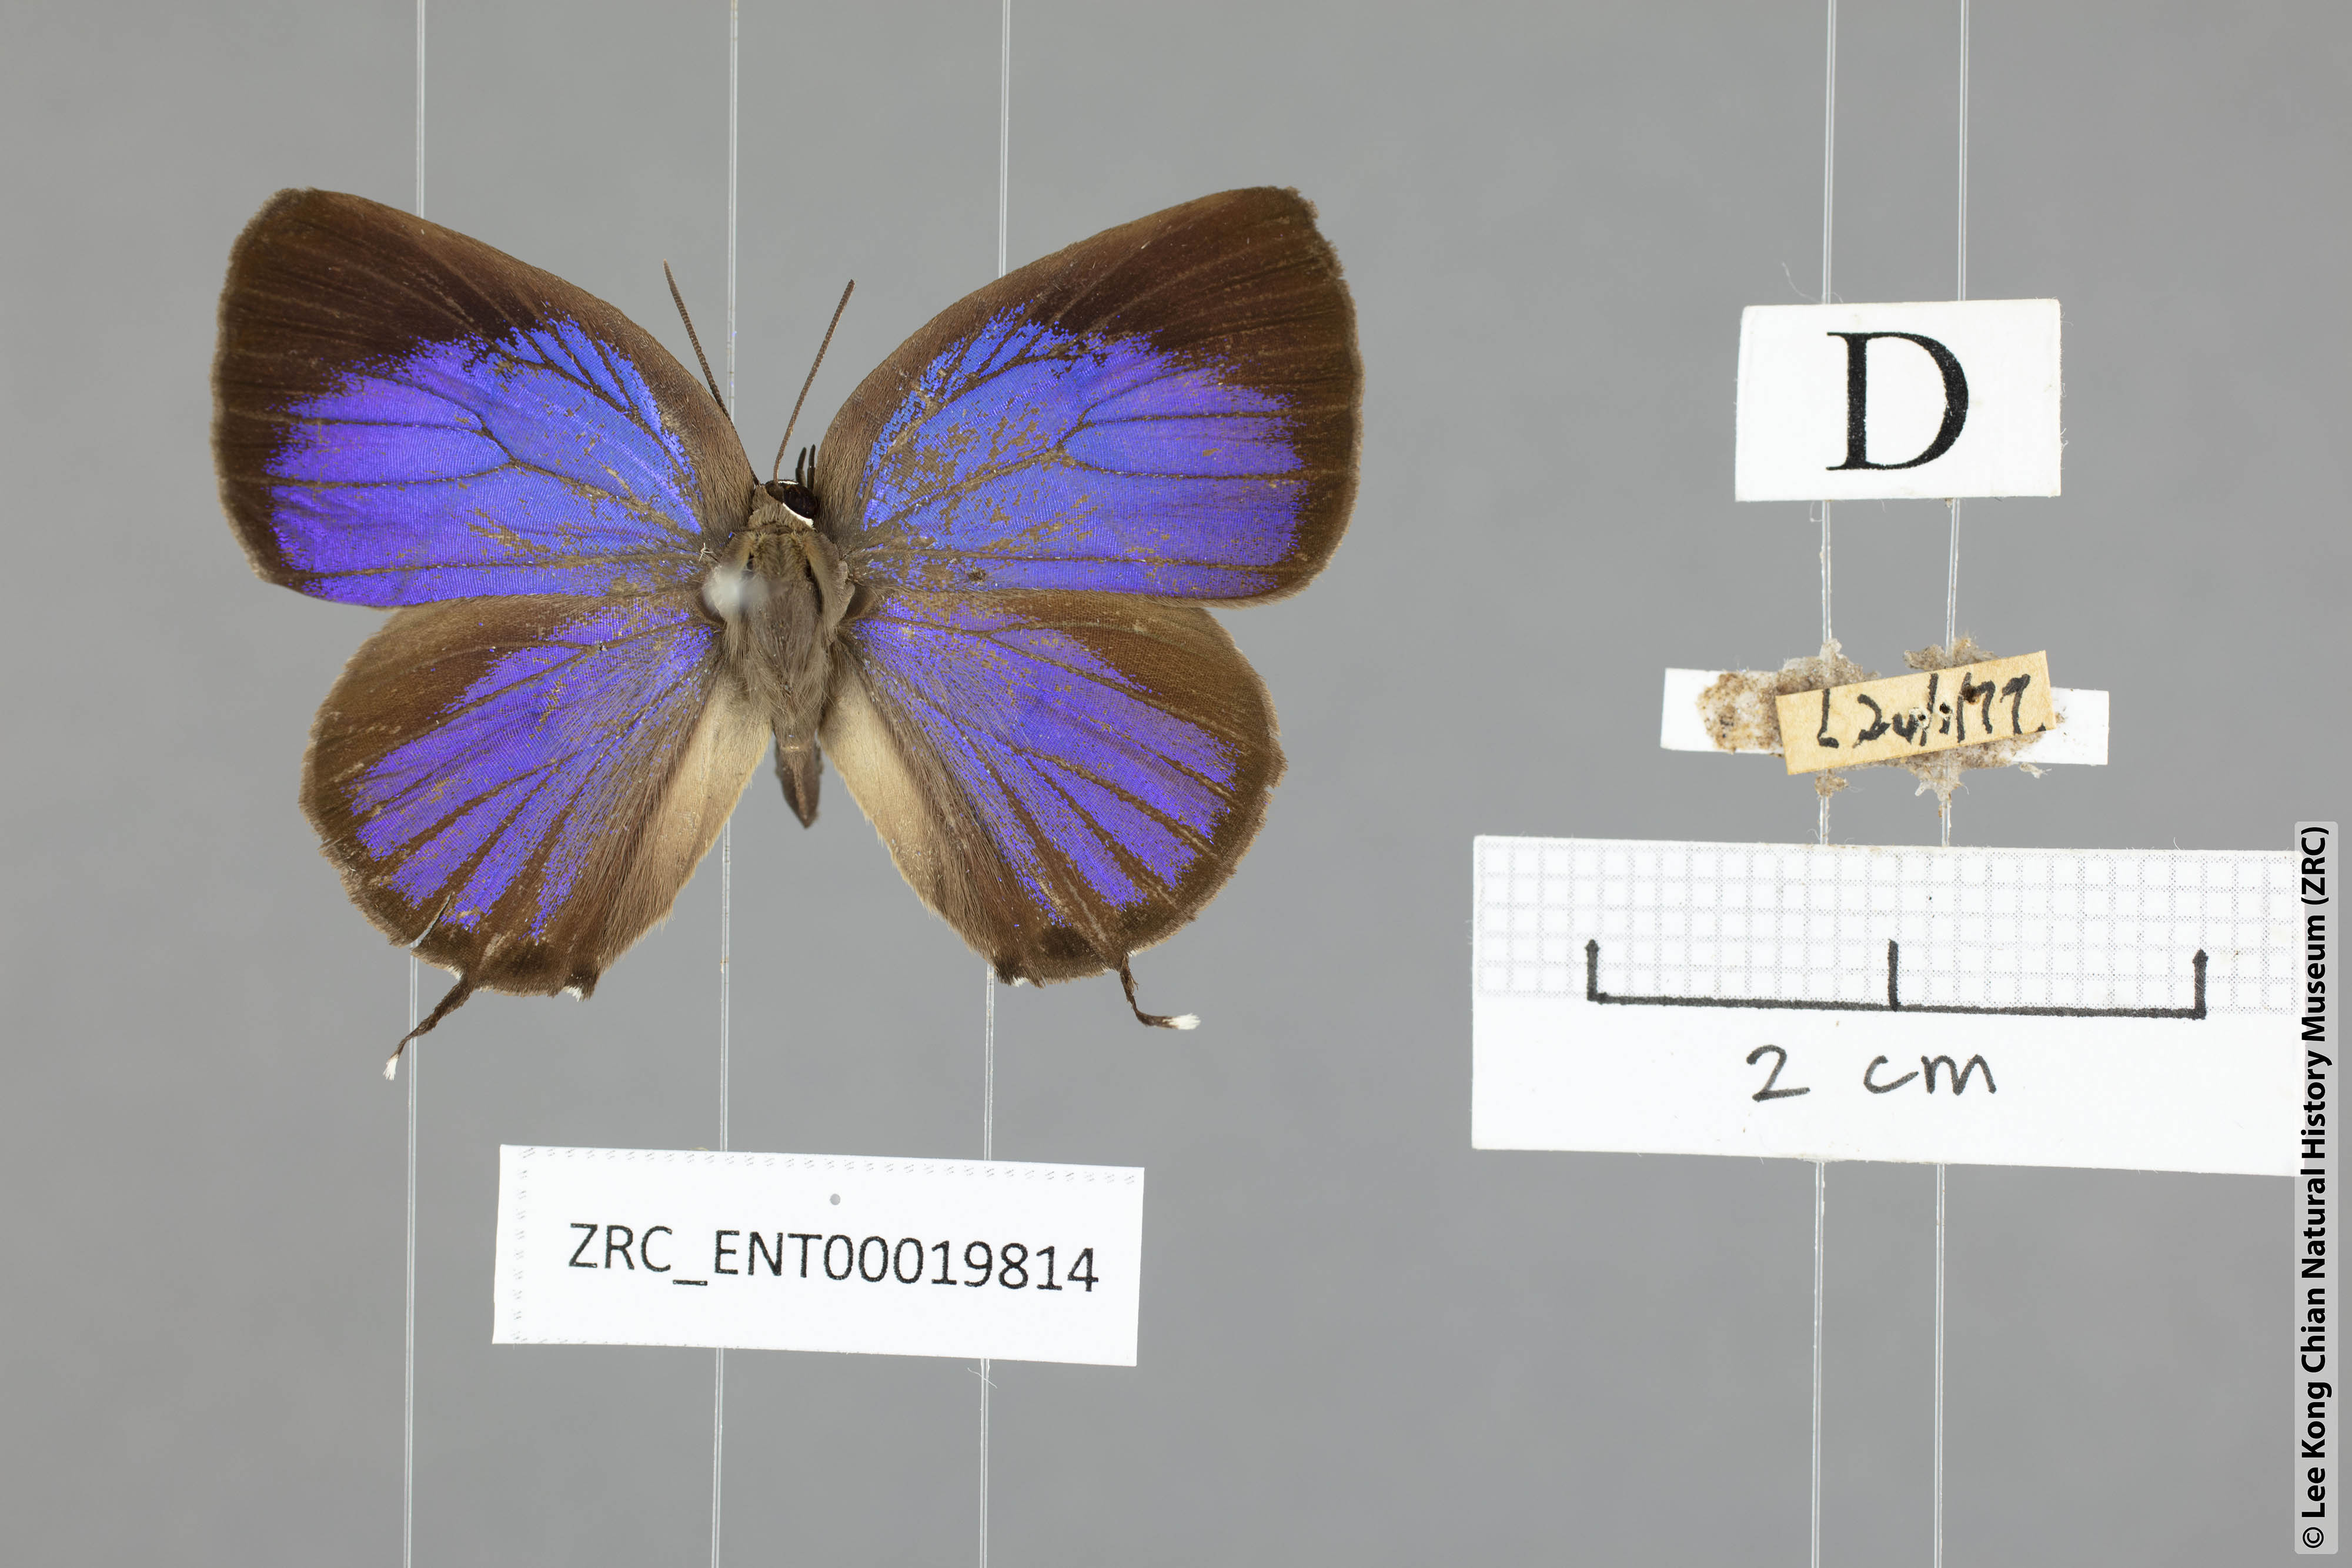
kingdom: Animalia
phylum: Arthropoda
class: Insecta
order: Lepidoptera
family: Lycaenidae
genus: Arhopala
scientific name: Arhopala pseudomuta
